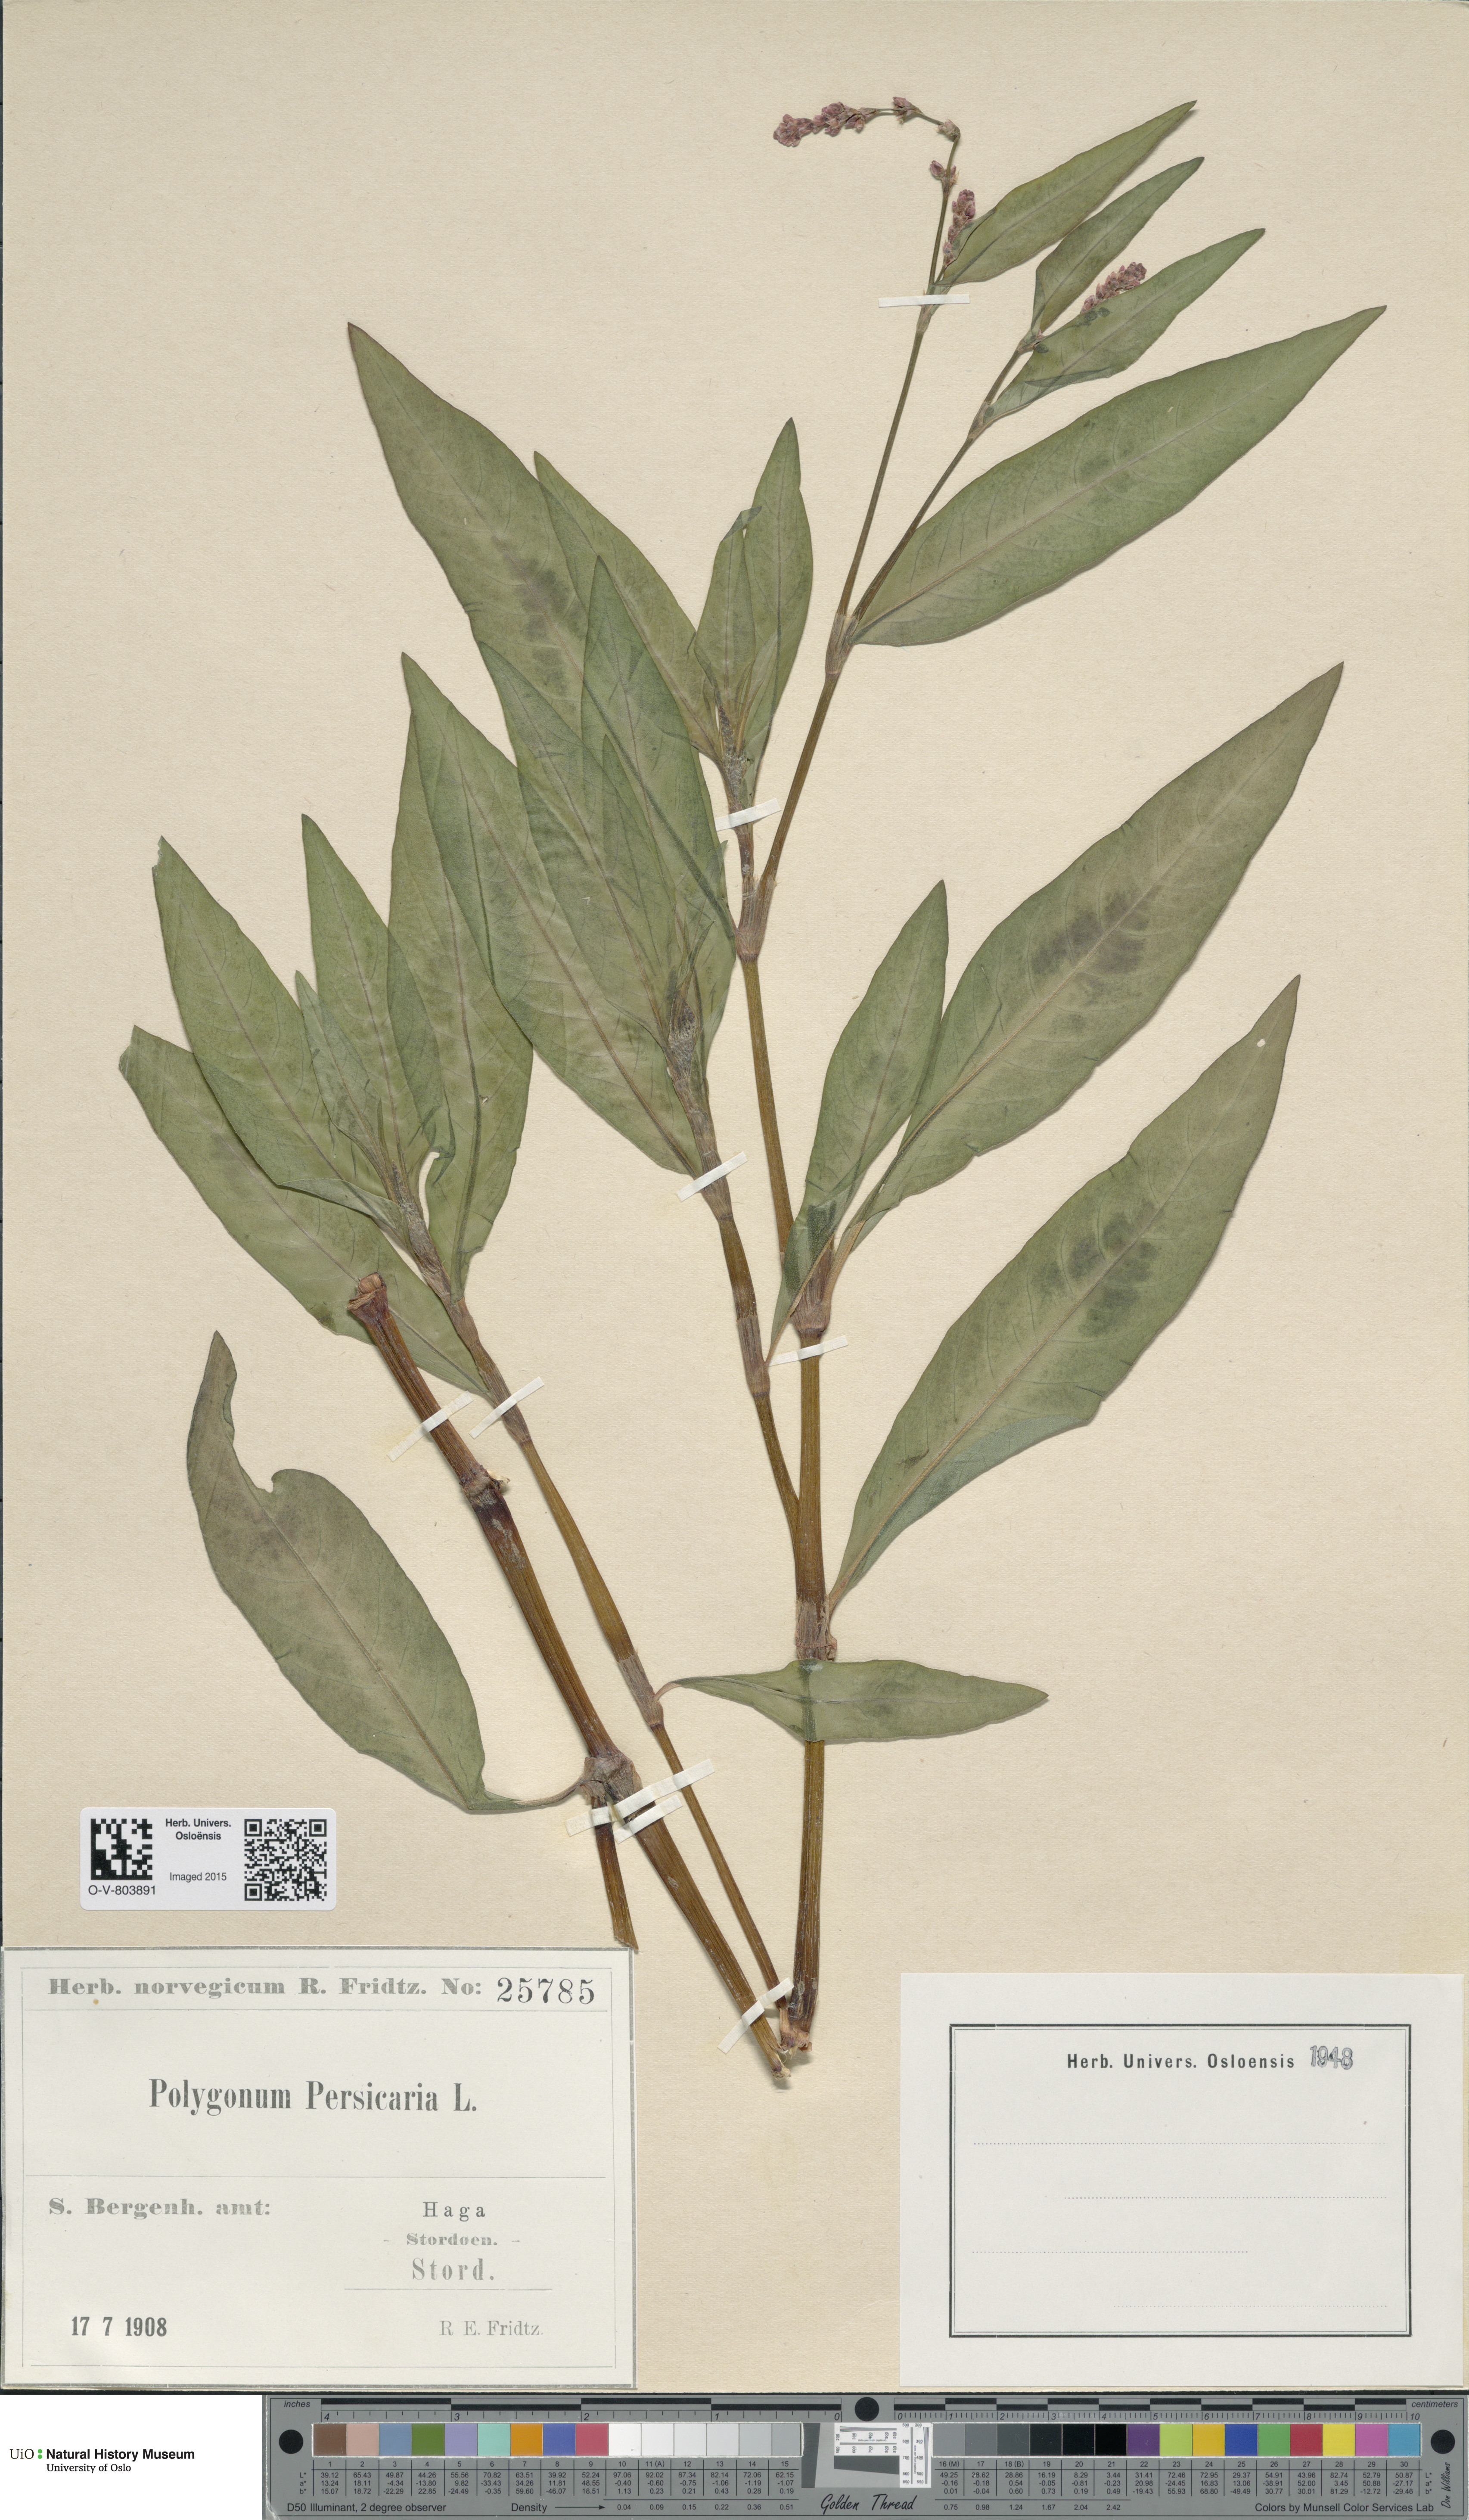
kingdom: Plantae
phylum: Tracheophyta
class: Magnoliopsida
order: Caryophyllales
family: Polygonaceae
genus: Persicaria
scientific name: Persicaria maculosa
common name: Redshank
